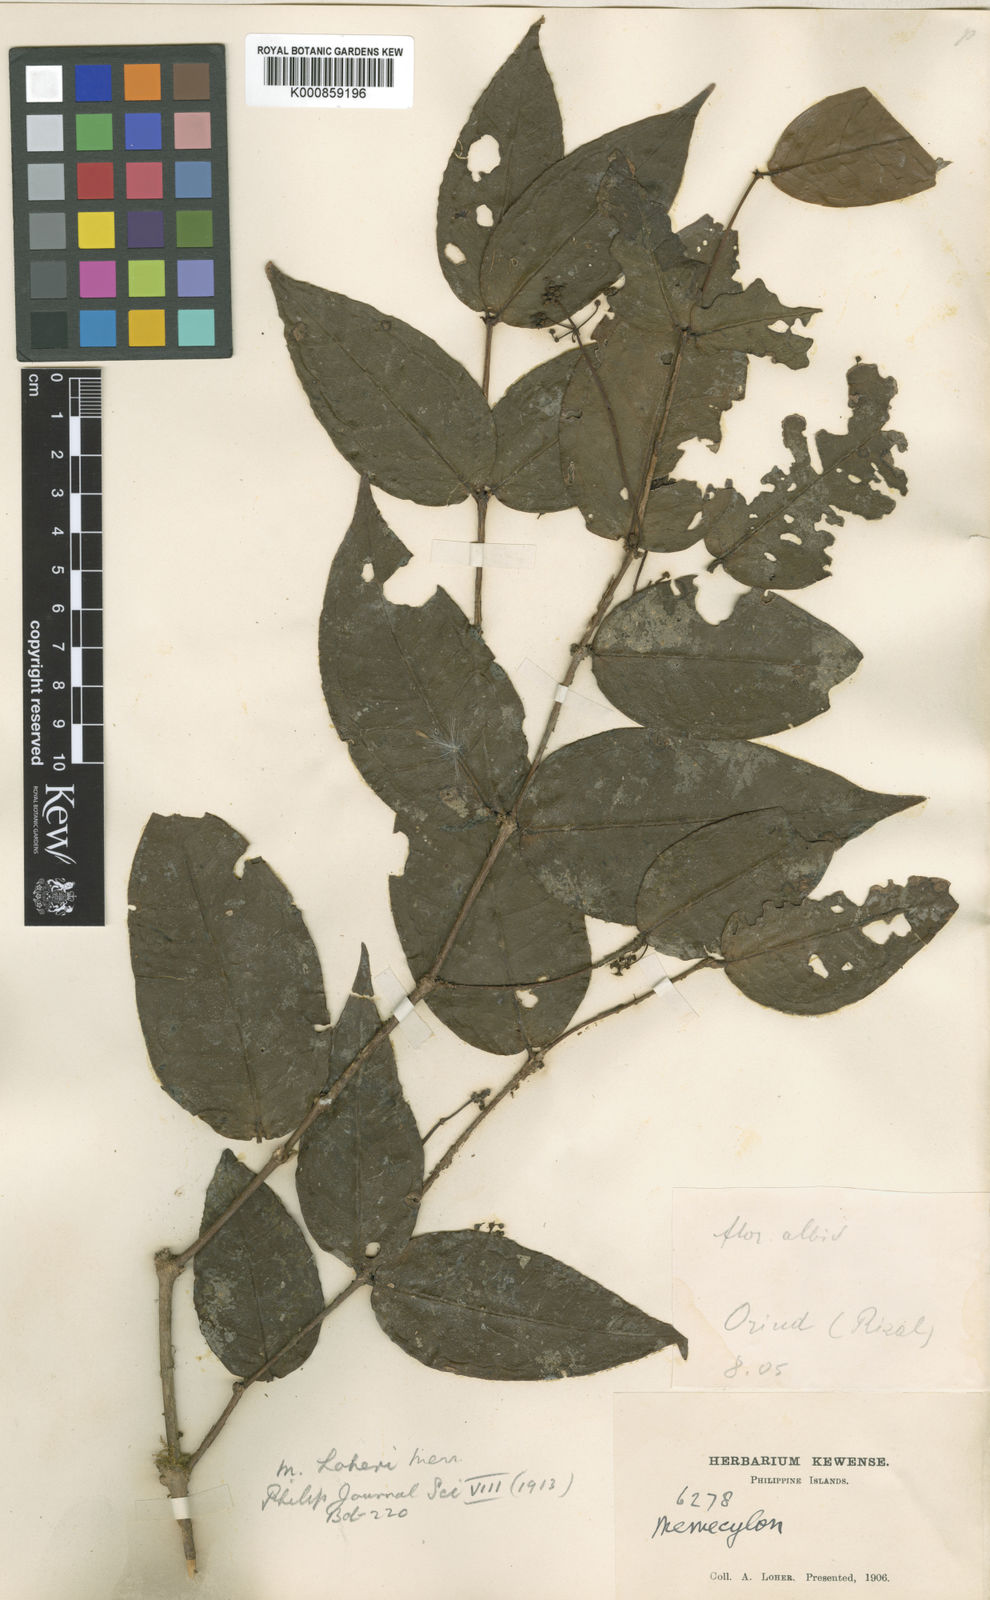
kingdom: Plantae
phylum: Tracheophyta
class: Magnoliopsida
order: Myrtales
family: Melastomataceae
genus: Memecylon
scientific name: Memecylon loheri
